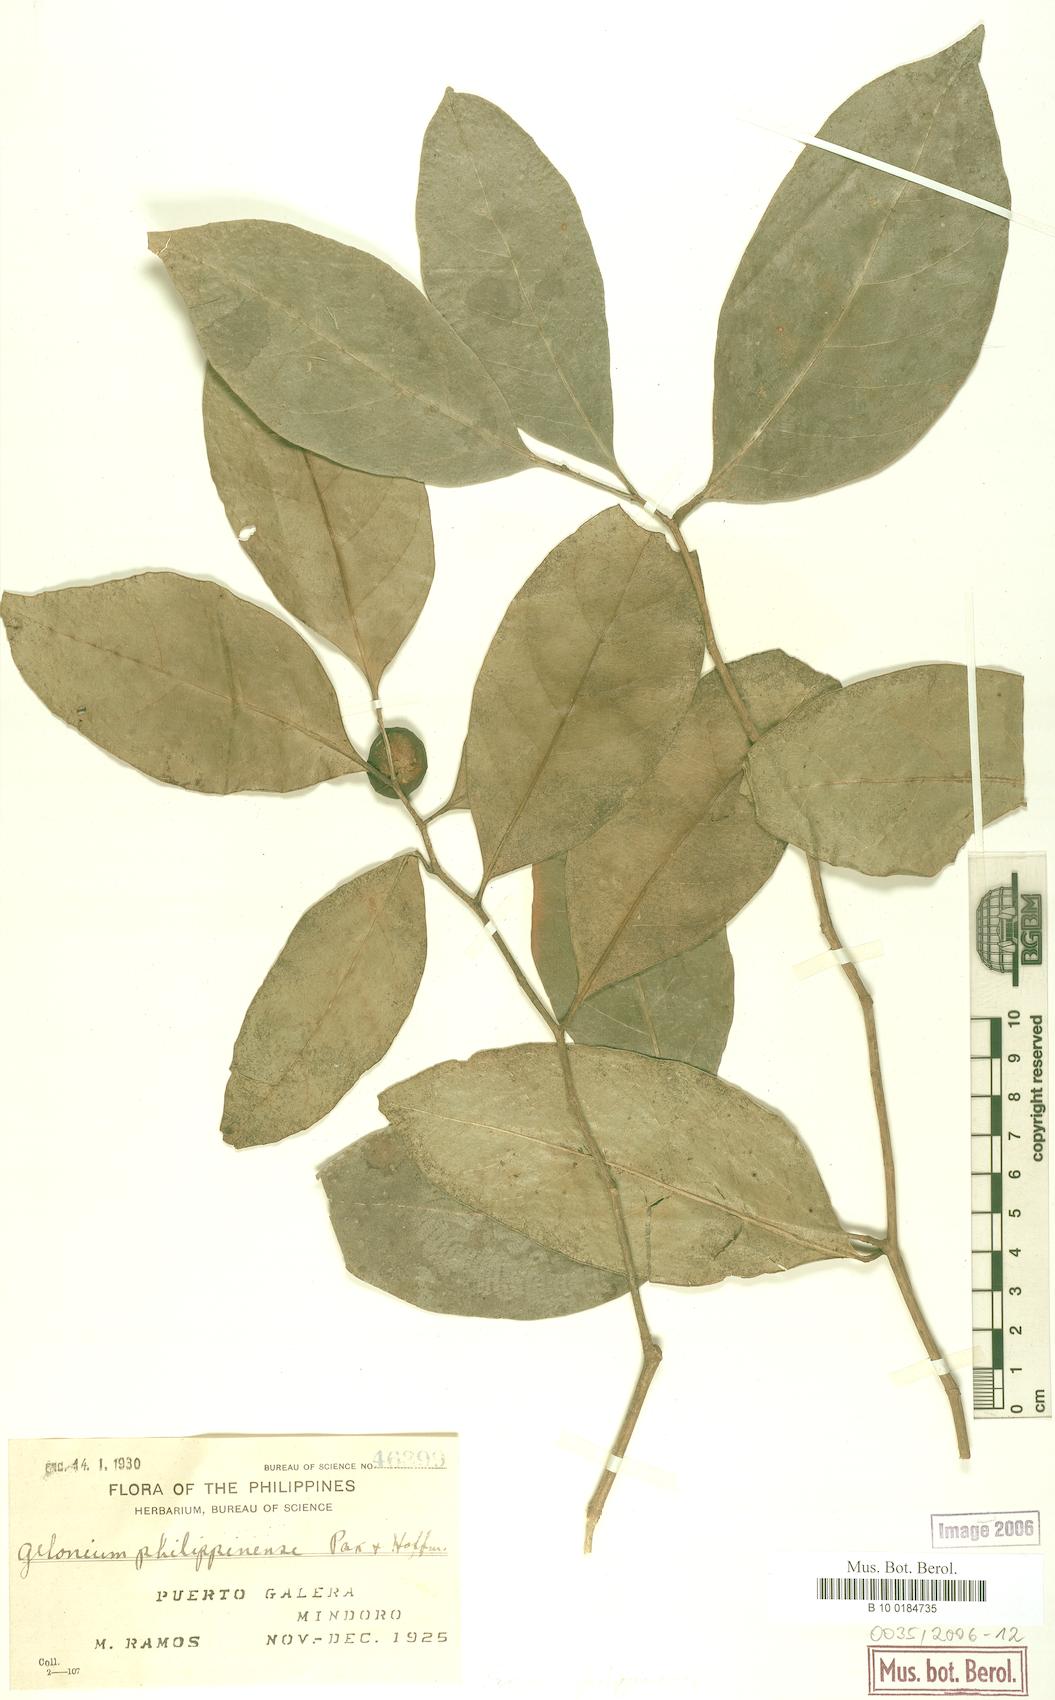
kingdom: Plantae
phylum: Tracheophyta
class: Magnoliopsida
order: Malpighiales
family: Euphorbiaceae
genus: Suregada
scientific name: Suregada glomerulata
